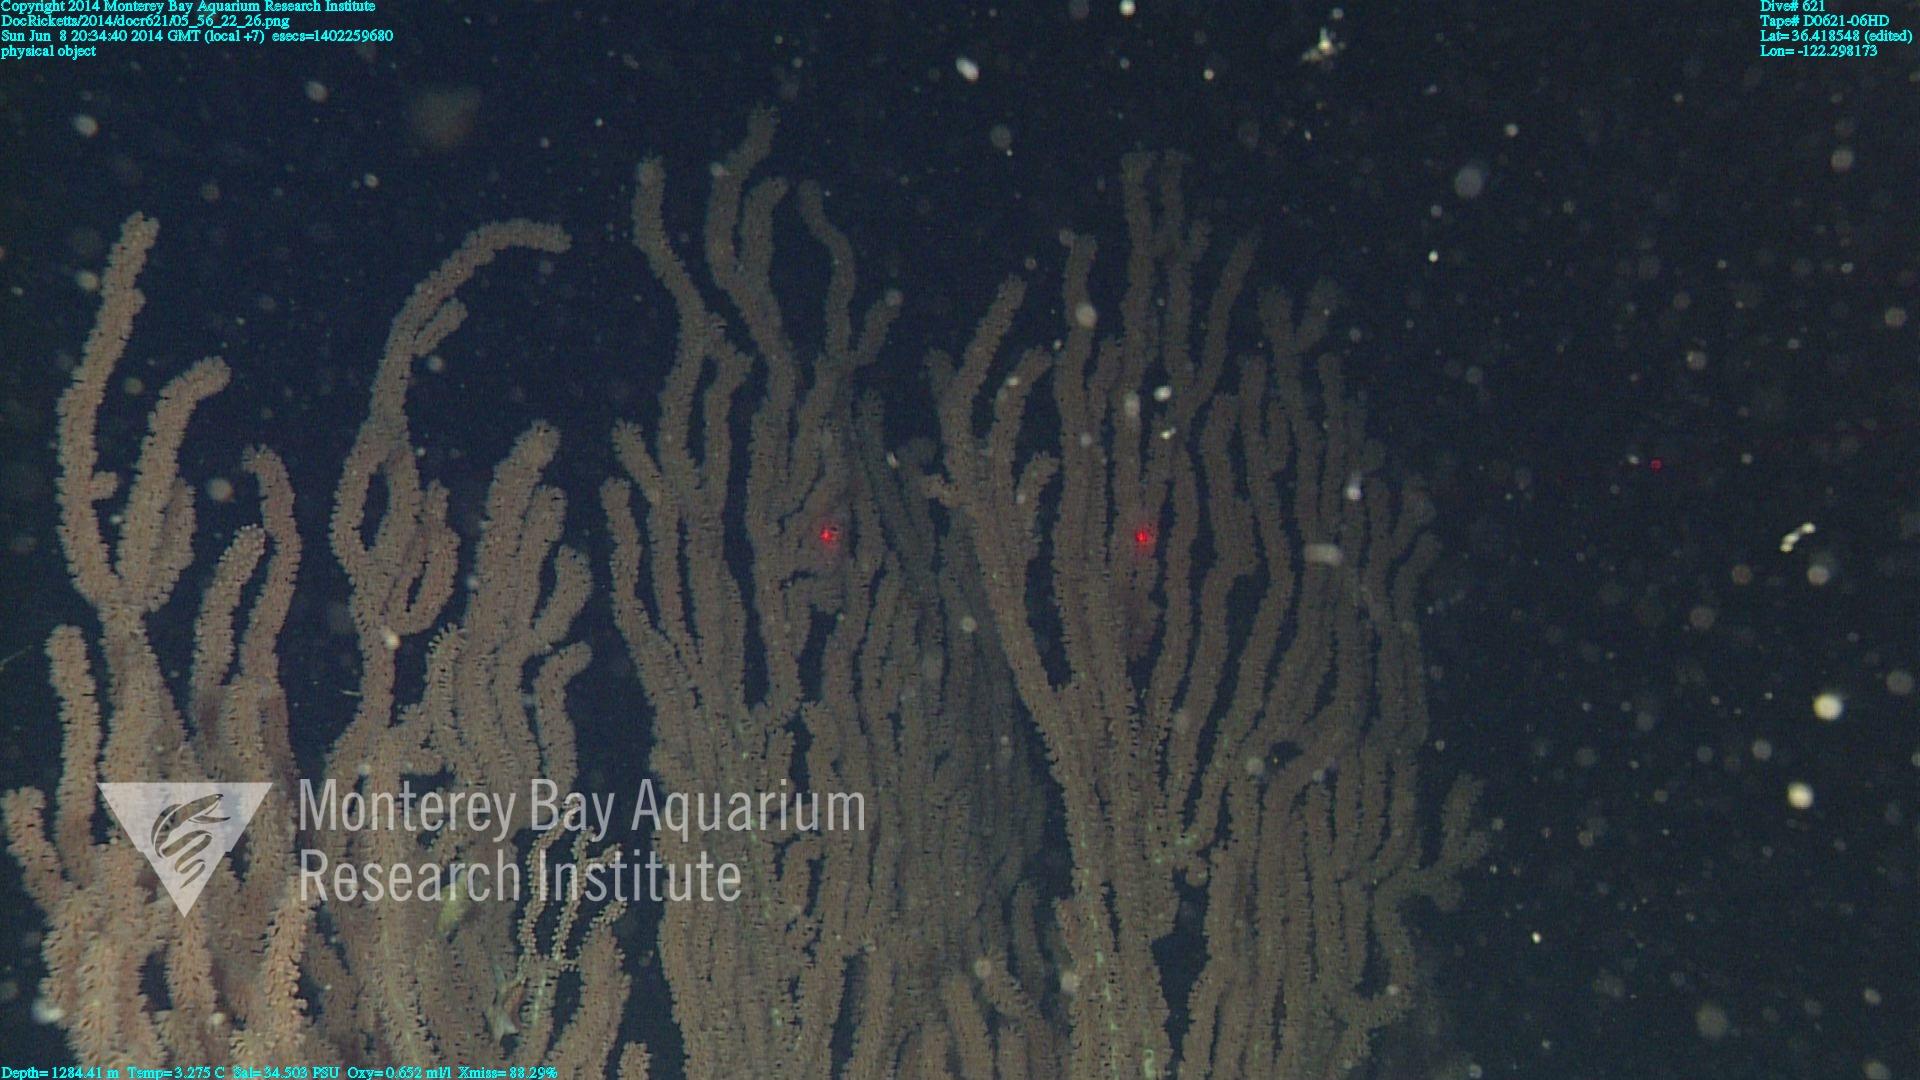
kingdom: Animalia
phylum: Cnidaria
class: Anthozoa
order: Scleralcyonacea
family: Keratoisididae
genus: Keratoisis
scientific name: Keratoisis
